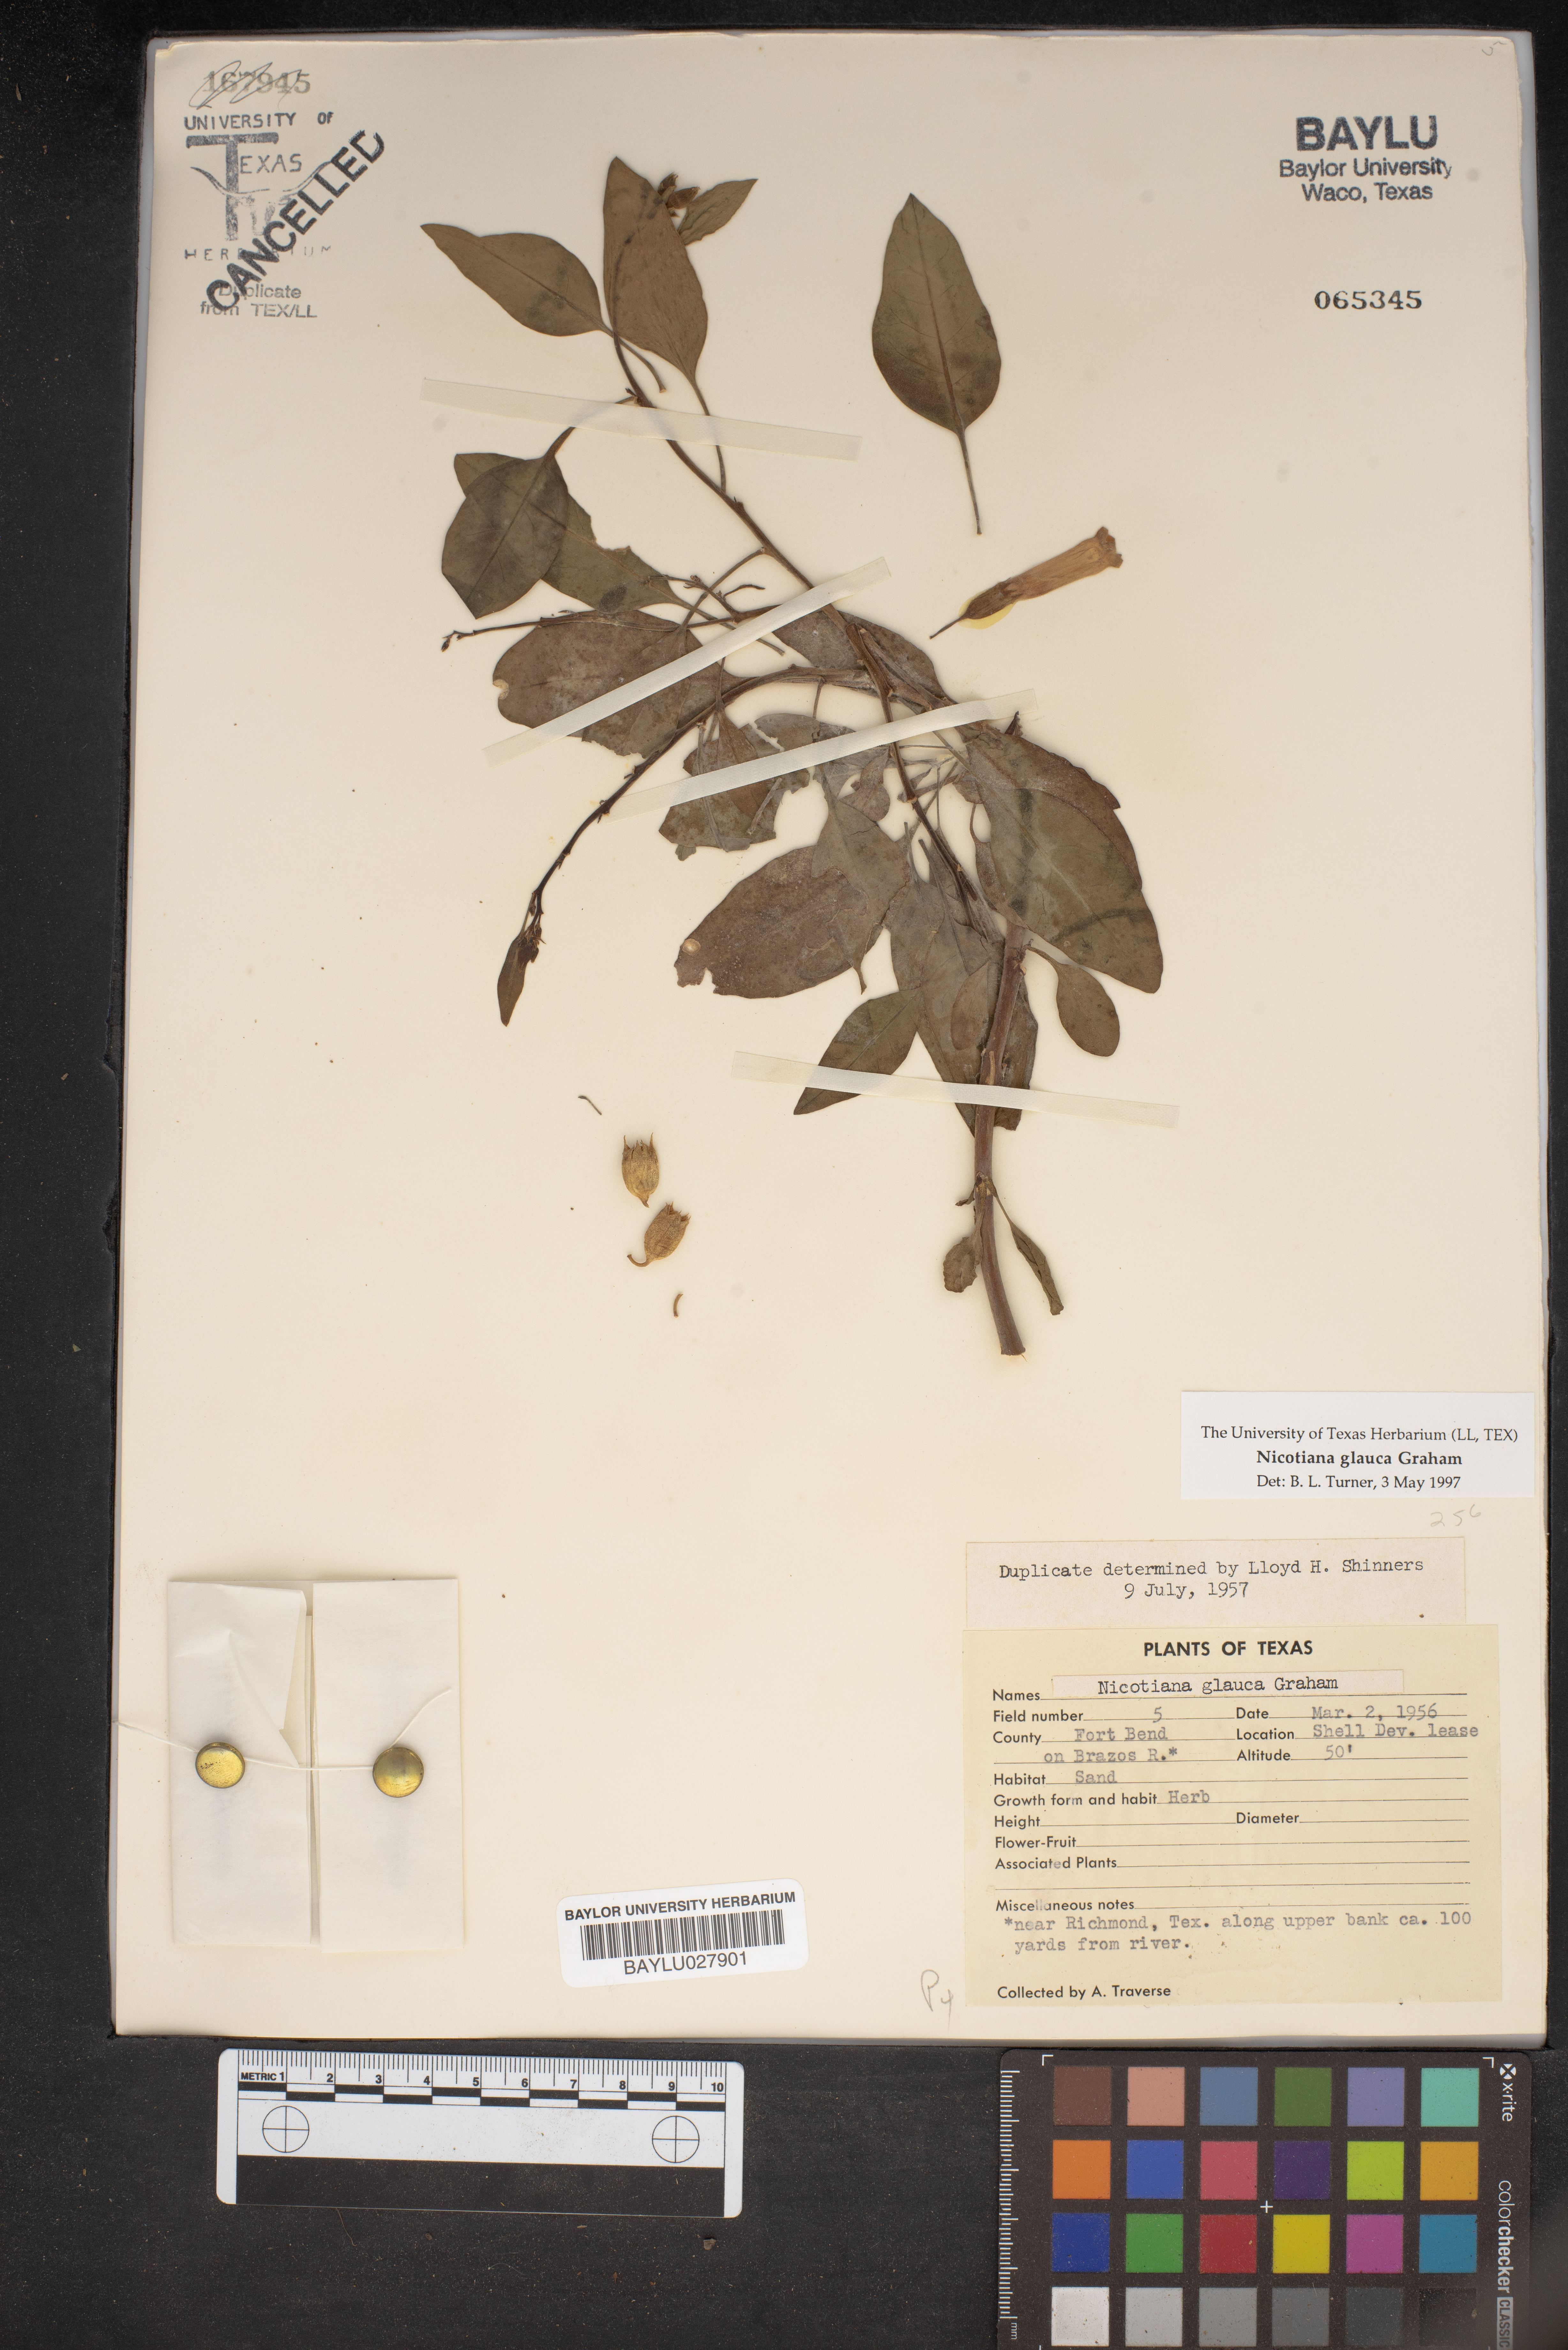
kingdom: Plantae
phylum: Tracheophyta
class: Magnoliopsida
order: Solanales
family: Solanaceae
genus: Nicotiana
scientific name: Nicotiana glauca
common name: Tree tobacco
